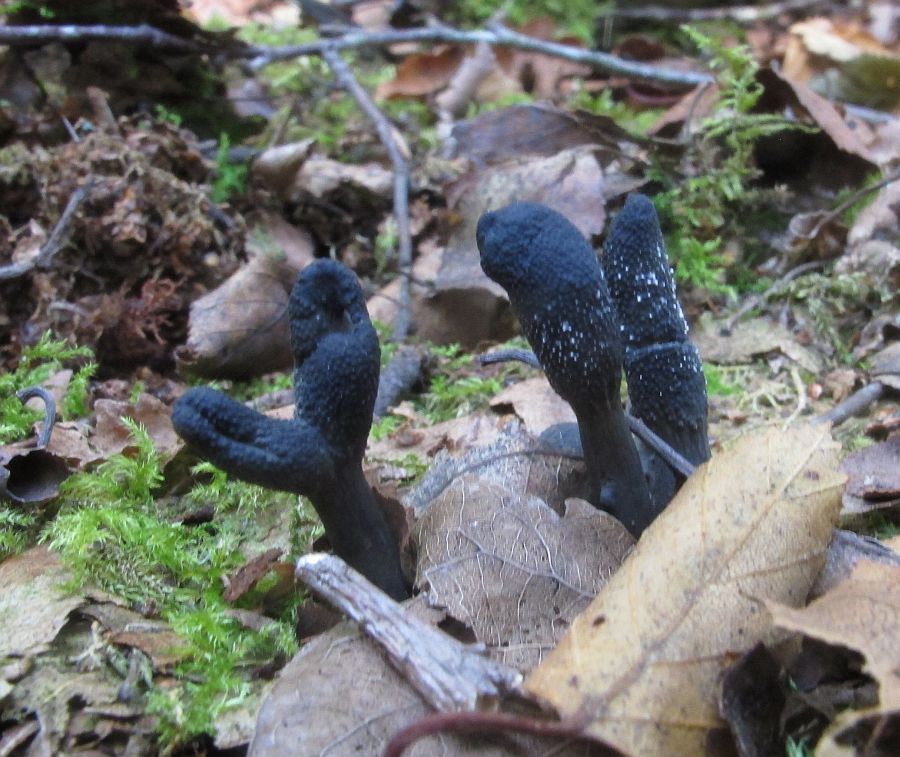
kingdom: Fungi
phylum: Ascomycota
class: Sordariomycetes
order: Hypocreales
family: Ophiocordycipitaceae
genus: Tolypocladium
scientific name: Tolypocladium ophioglossoides
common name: slank snyltekølle
